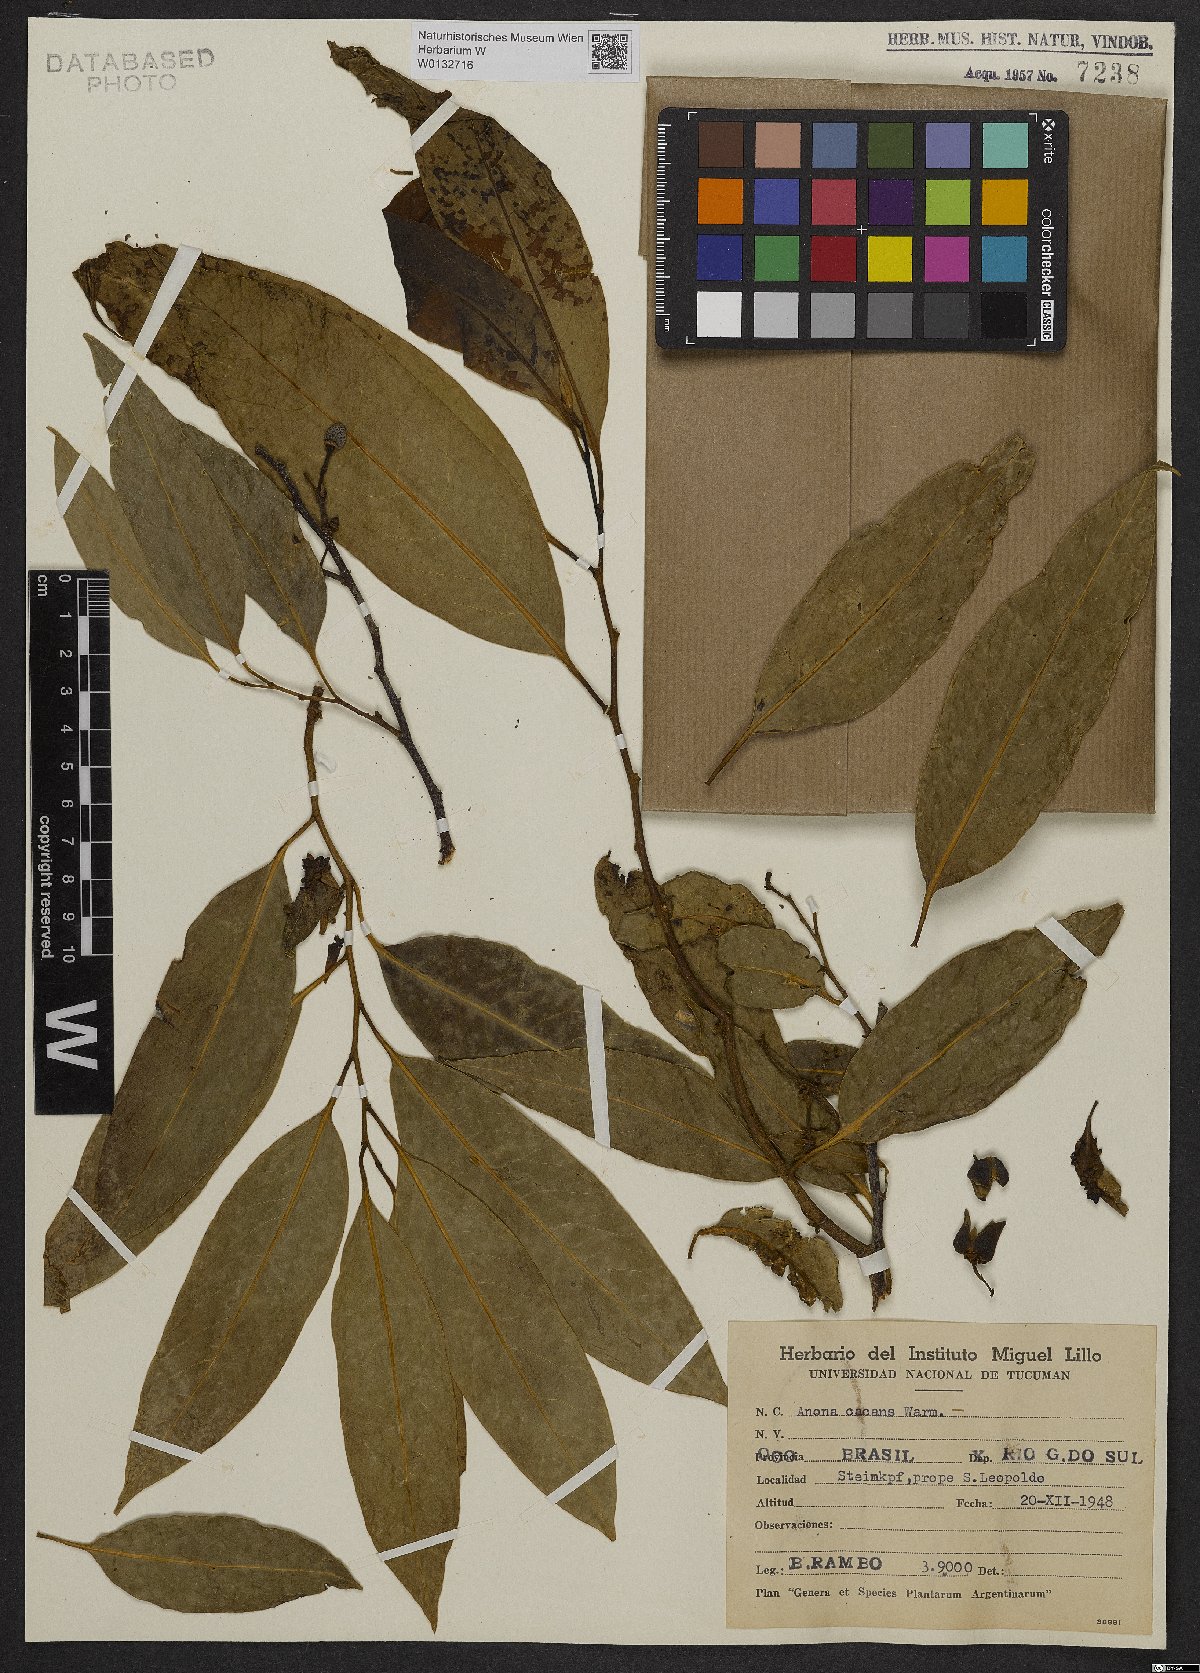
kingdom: Plantae
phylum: Tracheophyta
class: Magnoliopsida
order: Magnoliales
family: Annonaceae
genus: Annona
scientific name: Annona cacans
